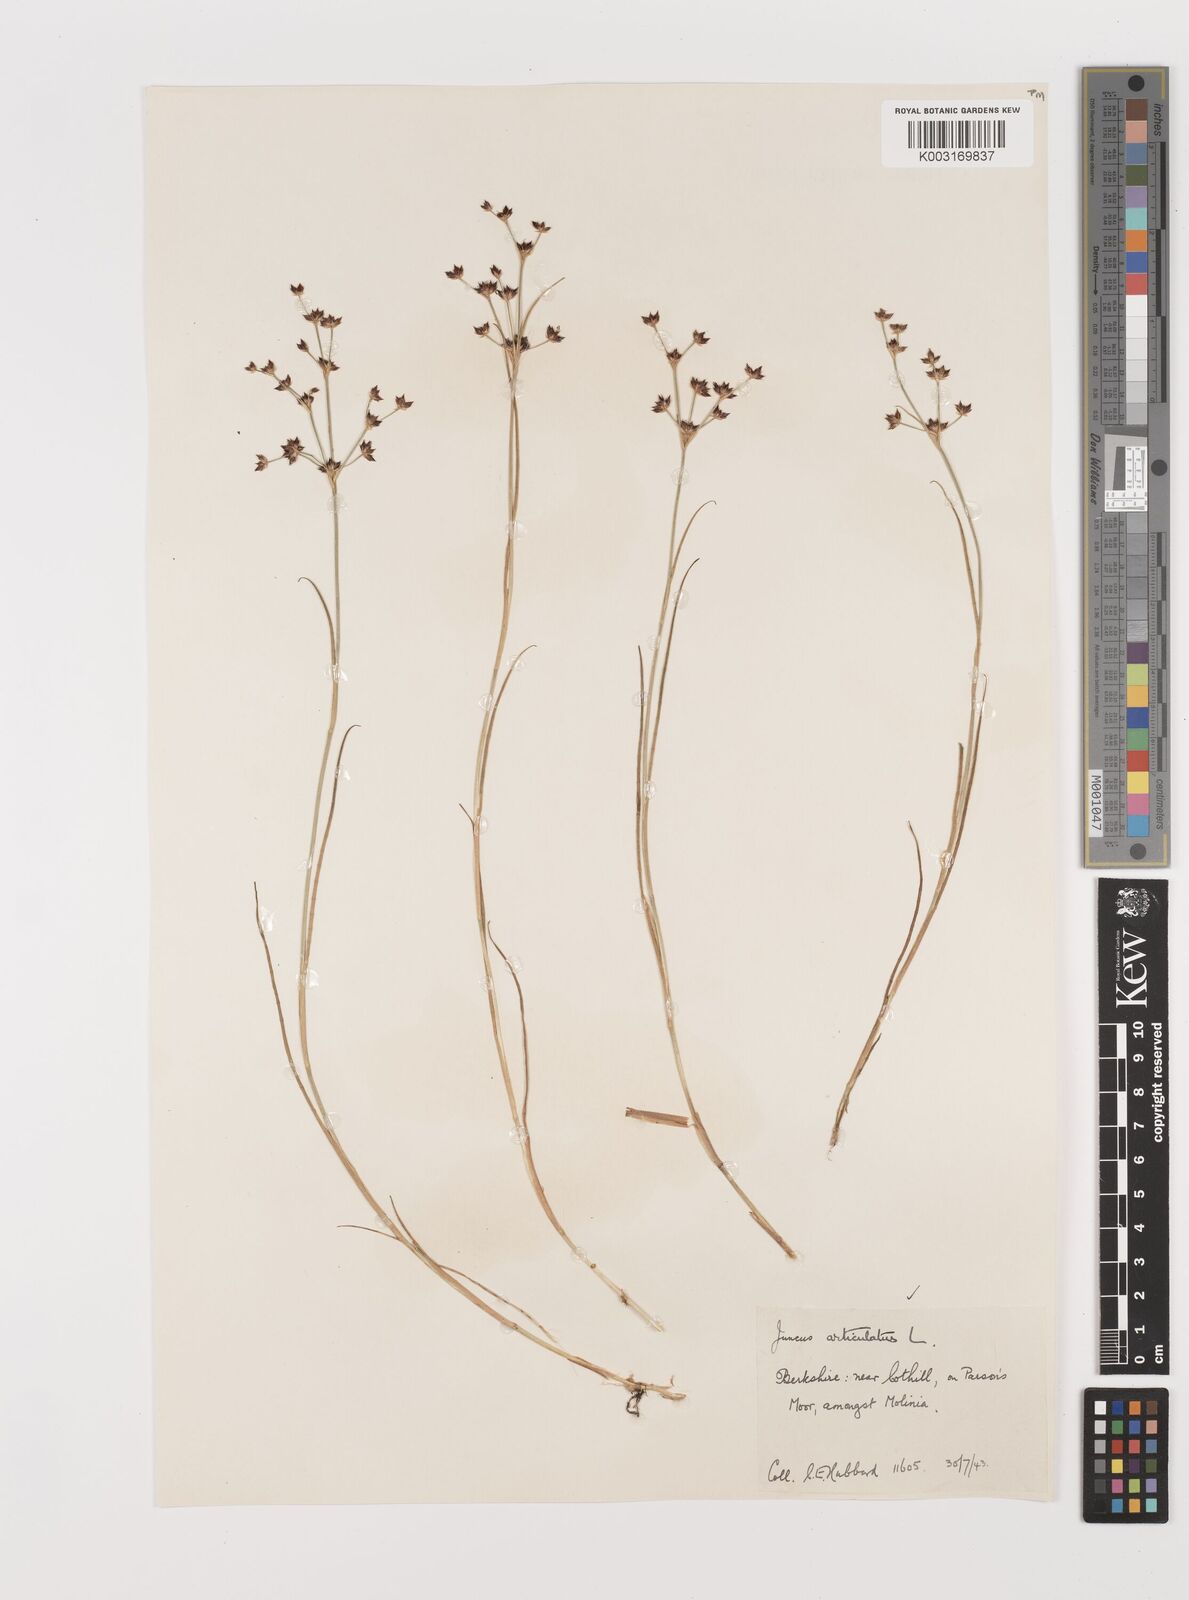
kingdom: Plantae
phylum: Tracheophyta
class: Liliopsida
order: Poales
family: Juncaceae
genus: Juncus
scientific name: Juncus articulatus
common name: Jointed rush
